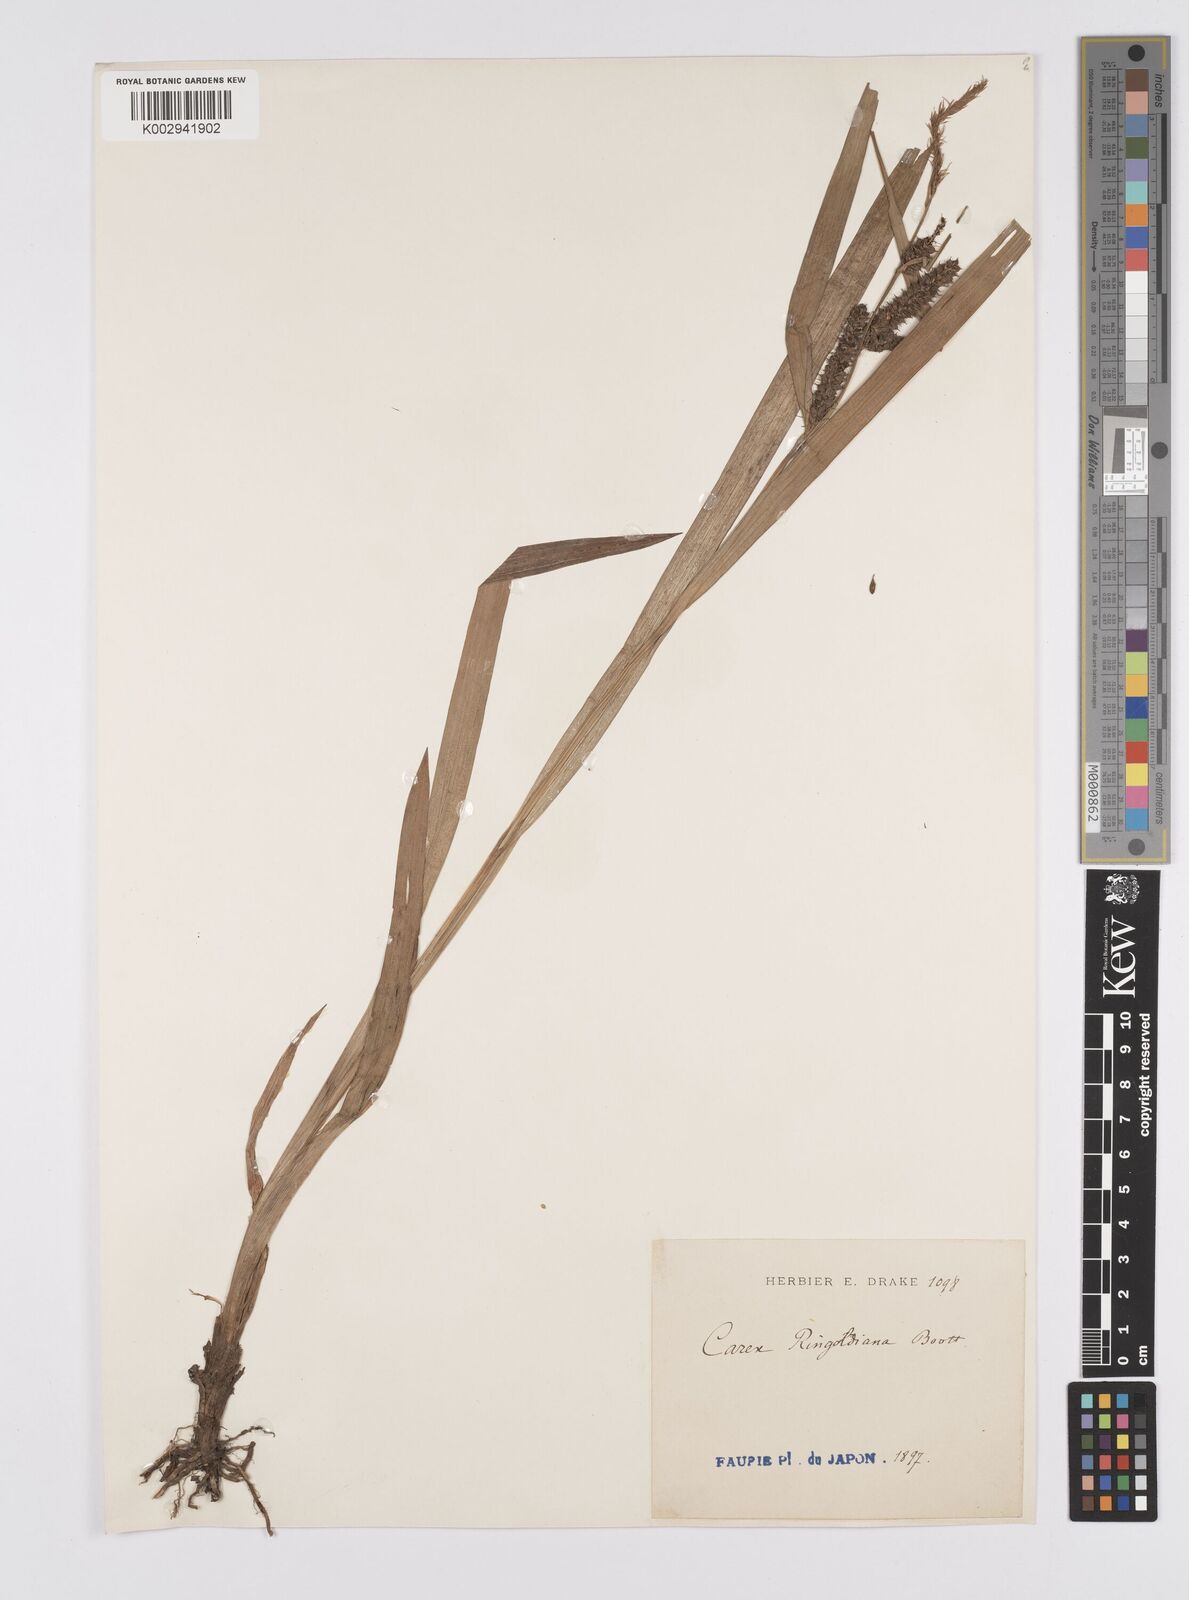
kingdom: Plantae
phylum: Tracheophyta
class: Liliopsida
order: Poales
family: Cyperaceae
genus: Carex
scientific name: Carex ischnostachya
